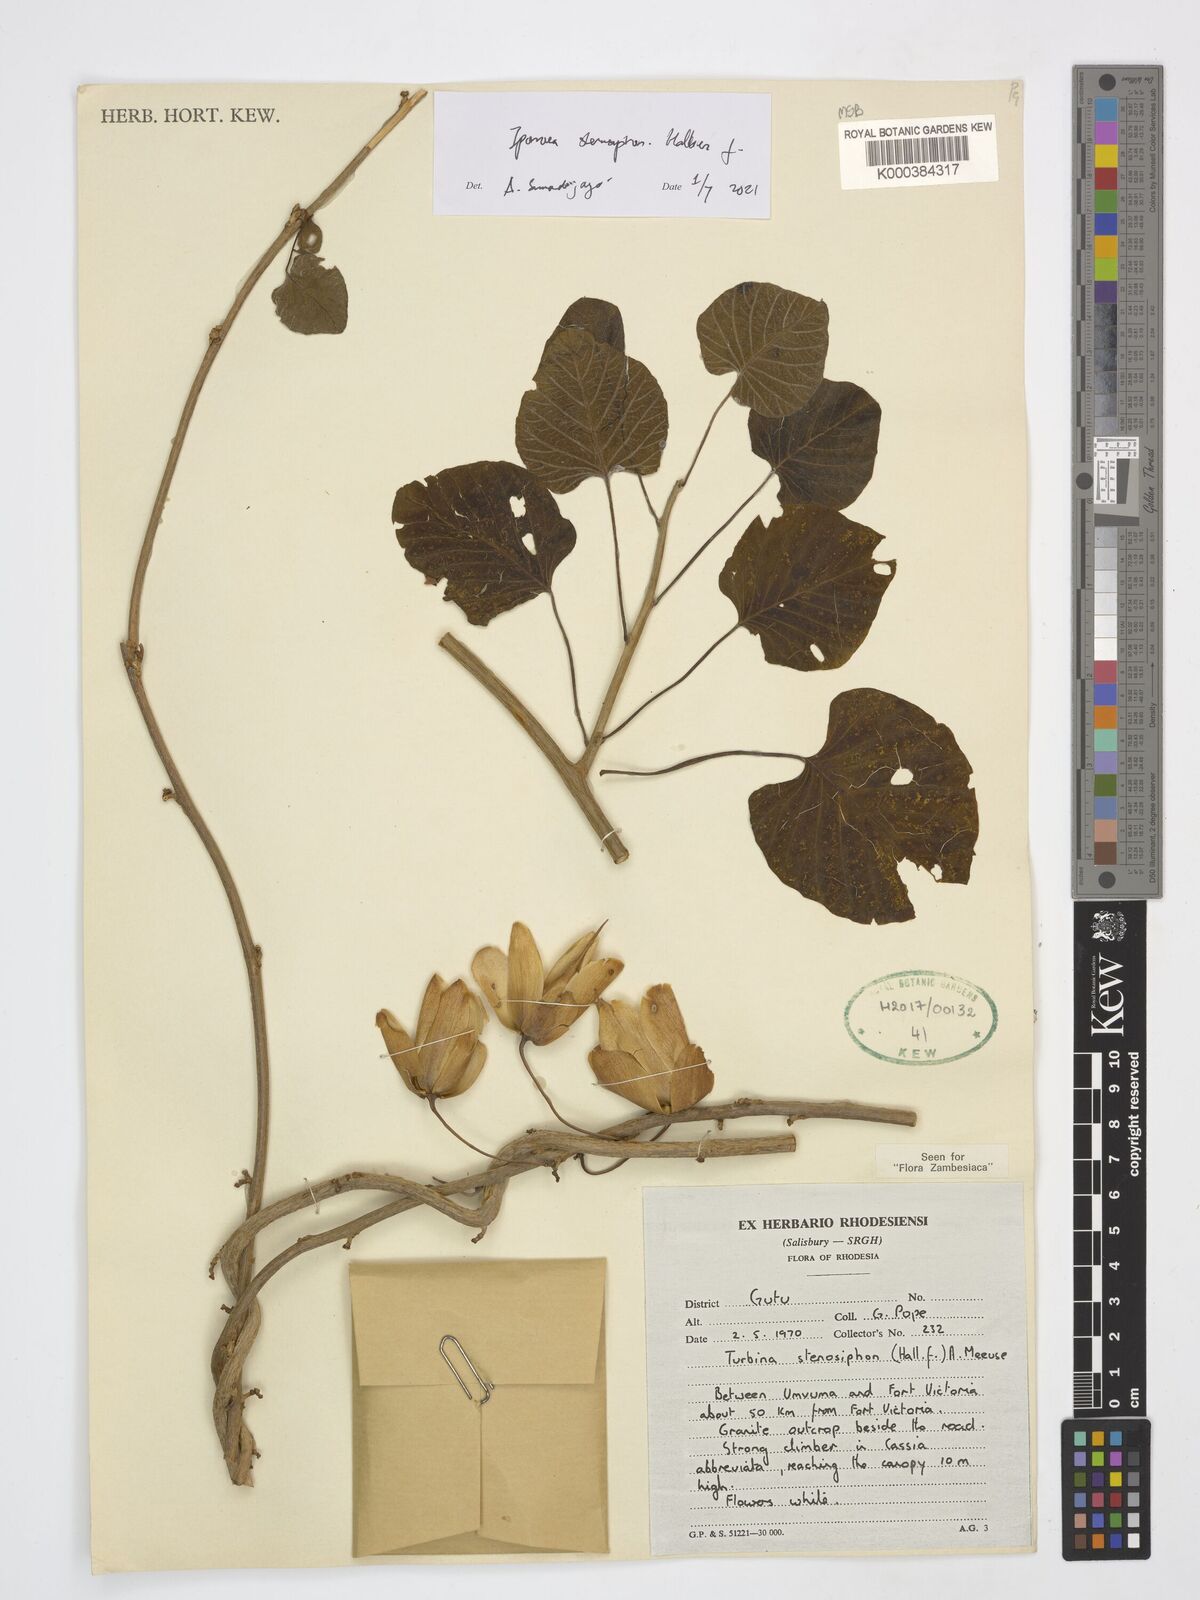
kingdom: Plantae
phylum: Tracheophyta
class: Magnoliopsida
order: Solanales
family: Convolvulaceae
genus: Ipomoea
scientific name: Ipomoea stenosiphon
